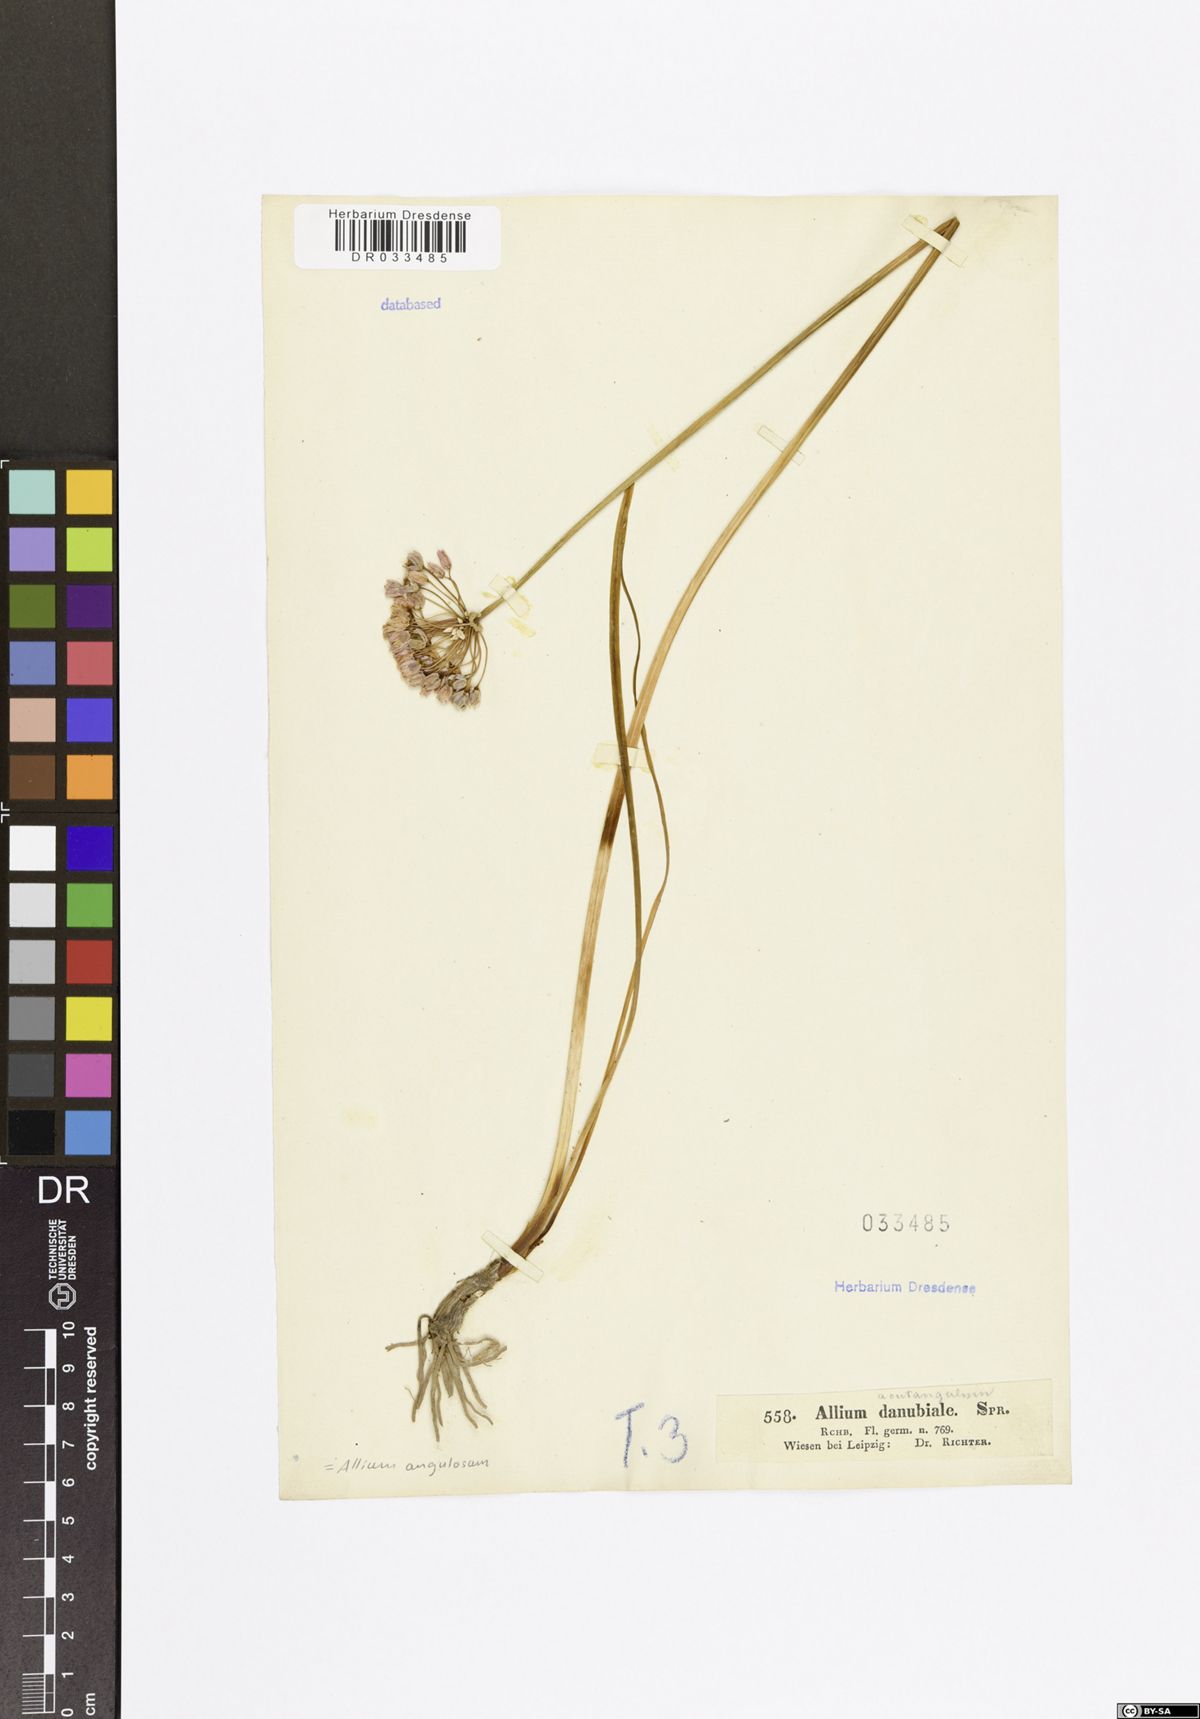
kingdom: Plantae
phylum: Tracheophyta
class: Liliopsida
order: Asparagales
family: Amaryllidaceae
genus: Allium
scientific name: Allium angulosum
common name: Mouse garlic
